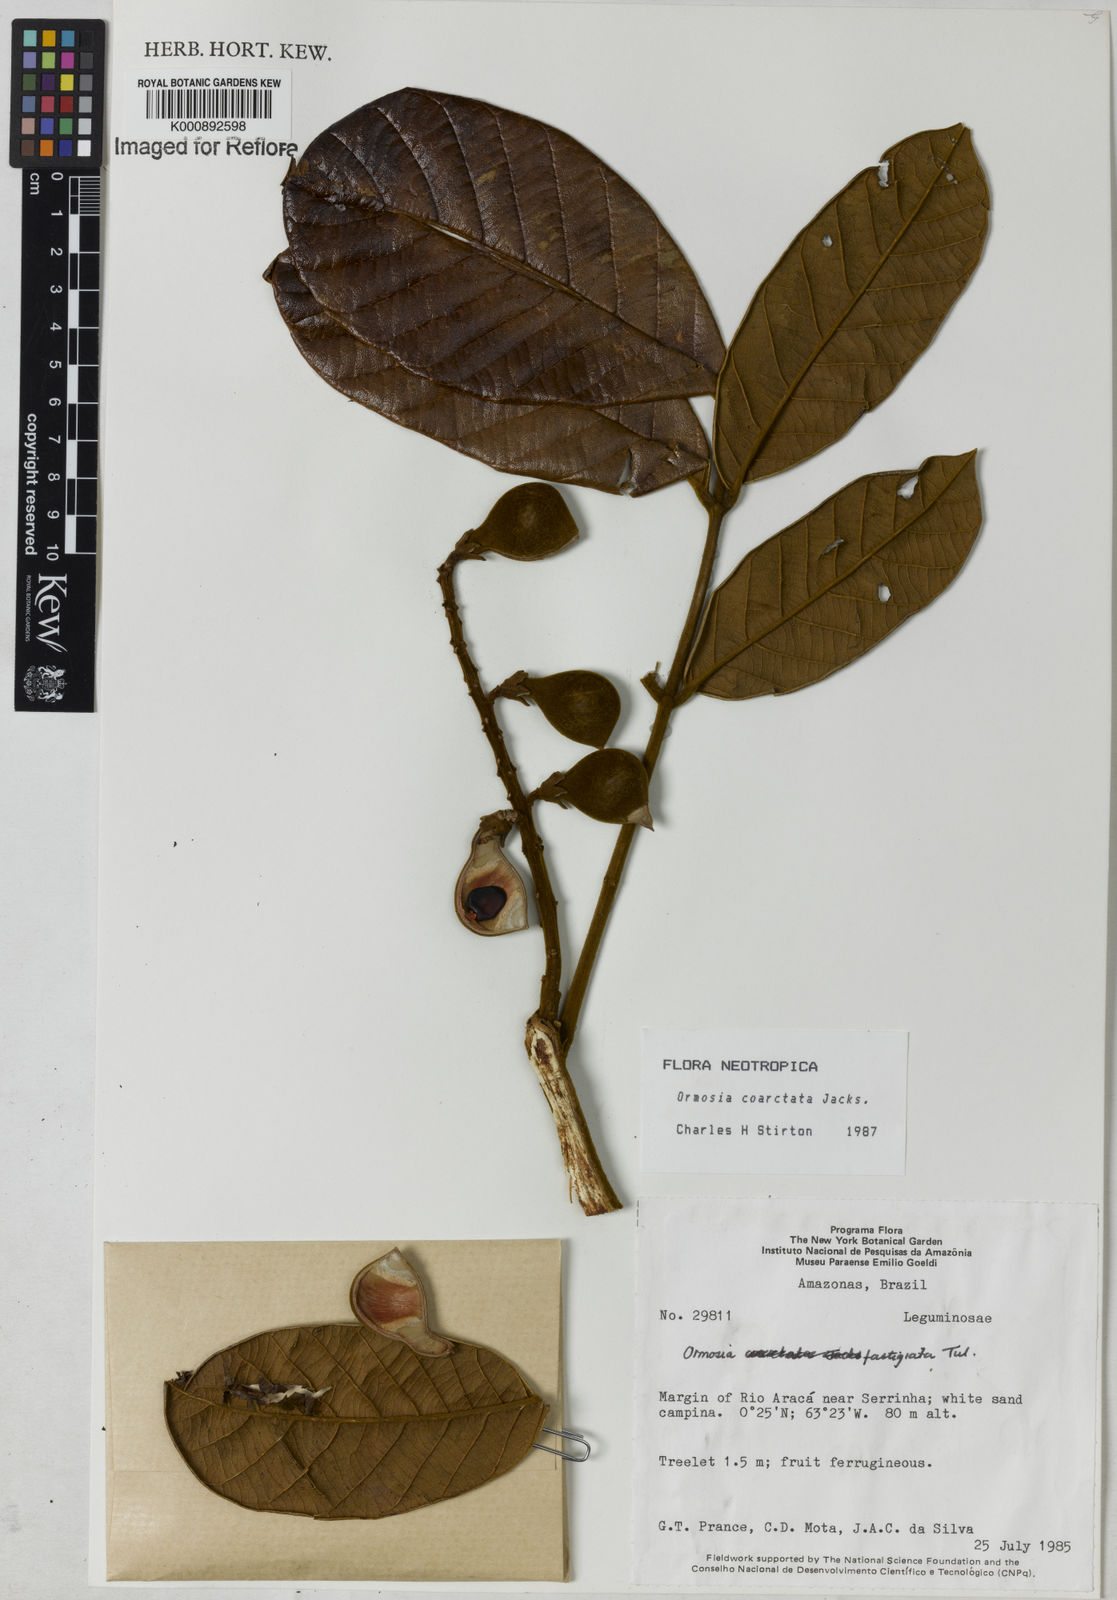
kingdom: Plantae
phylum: Tracheophyta
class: Magnoliopsida
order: Fabales
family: Fabaceae
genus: Ormosia
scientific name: Ormosia coarctata
